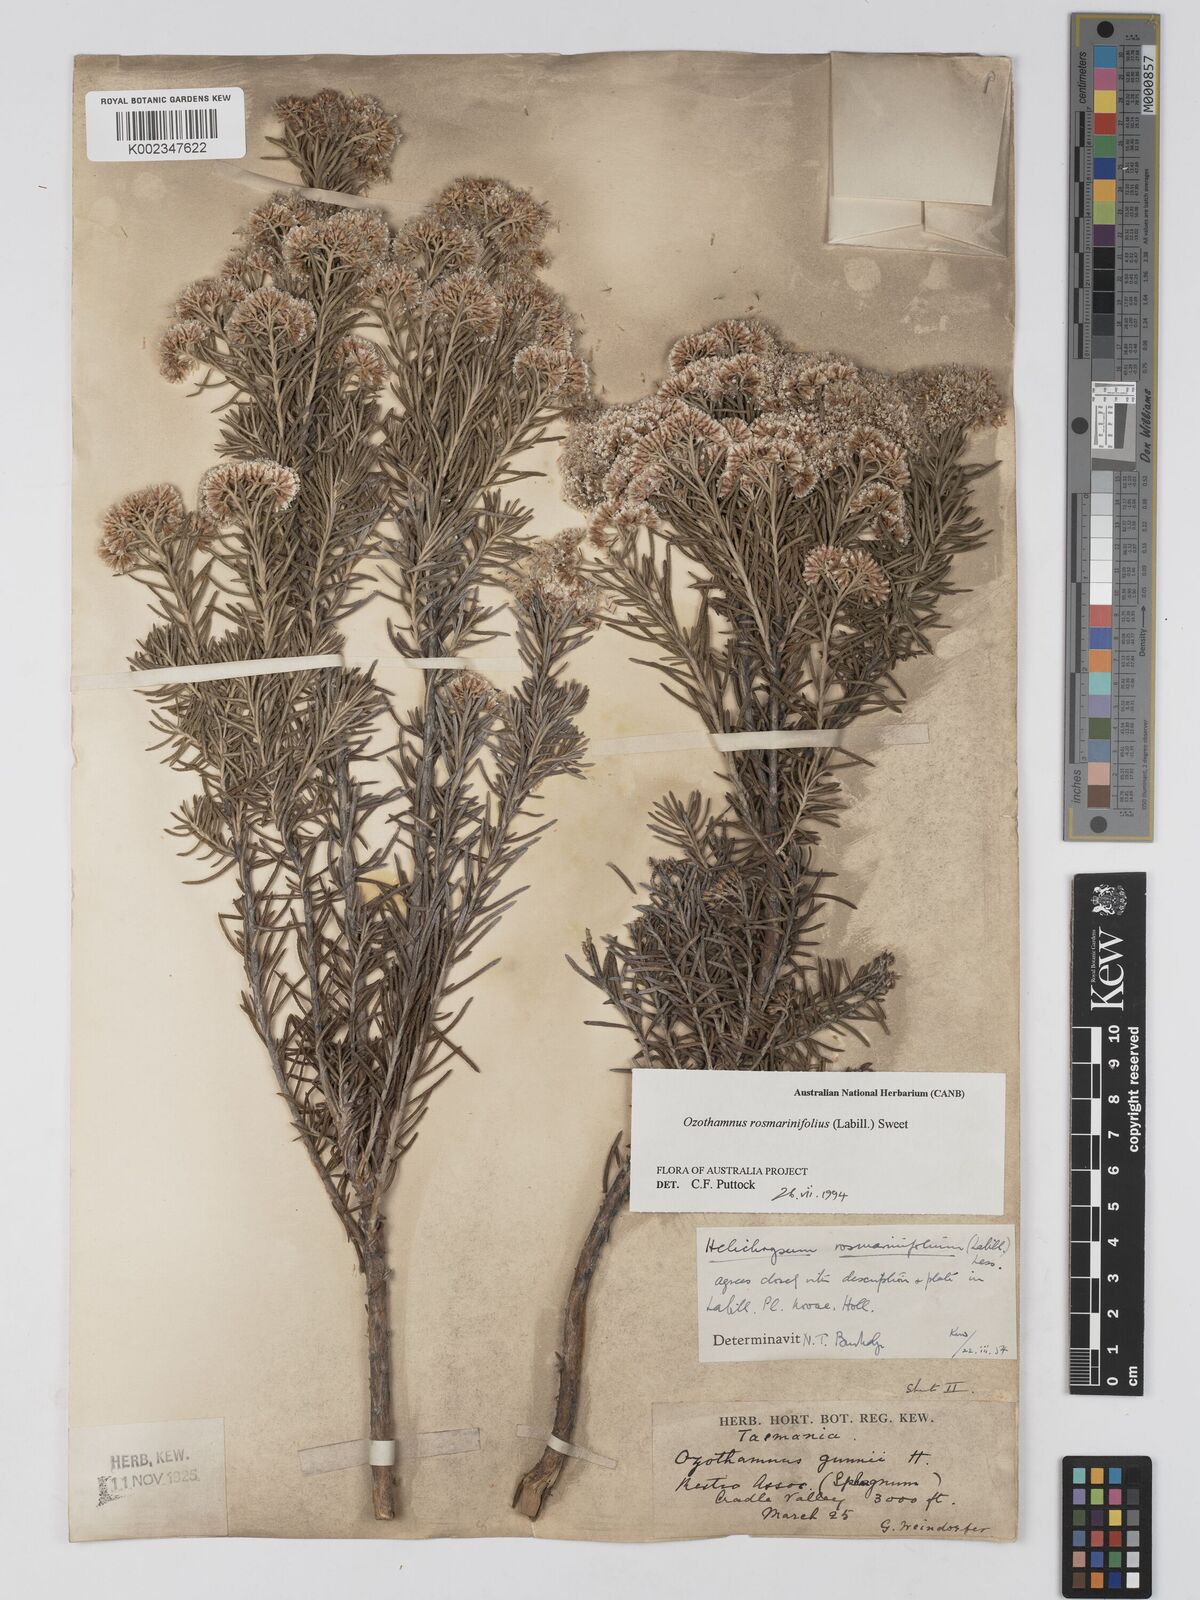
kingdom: Plantae
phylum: Tracheophyta
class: Magnoliopsida
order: Asterales
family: Asteraceae
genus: Ozothamnus
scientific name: Ozothamnus rosmarinifolius
